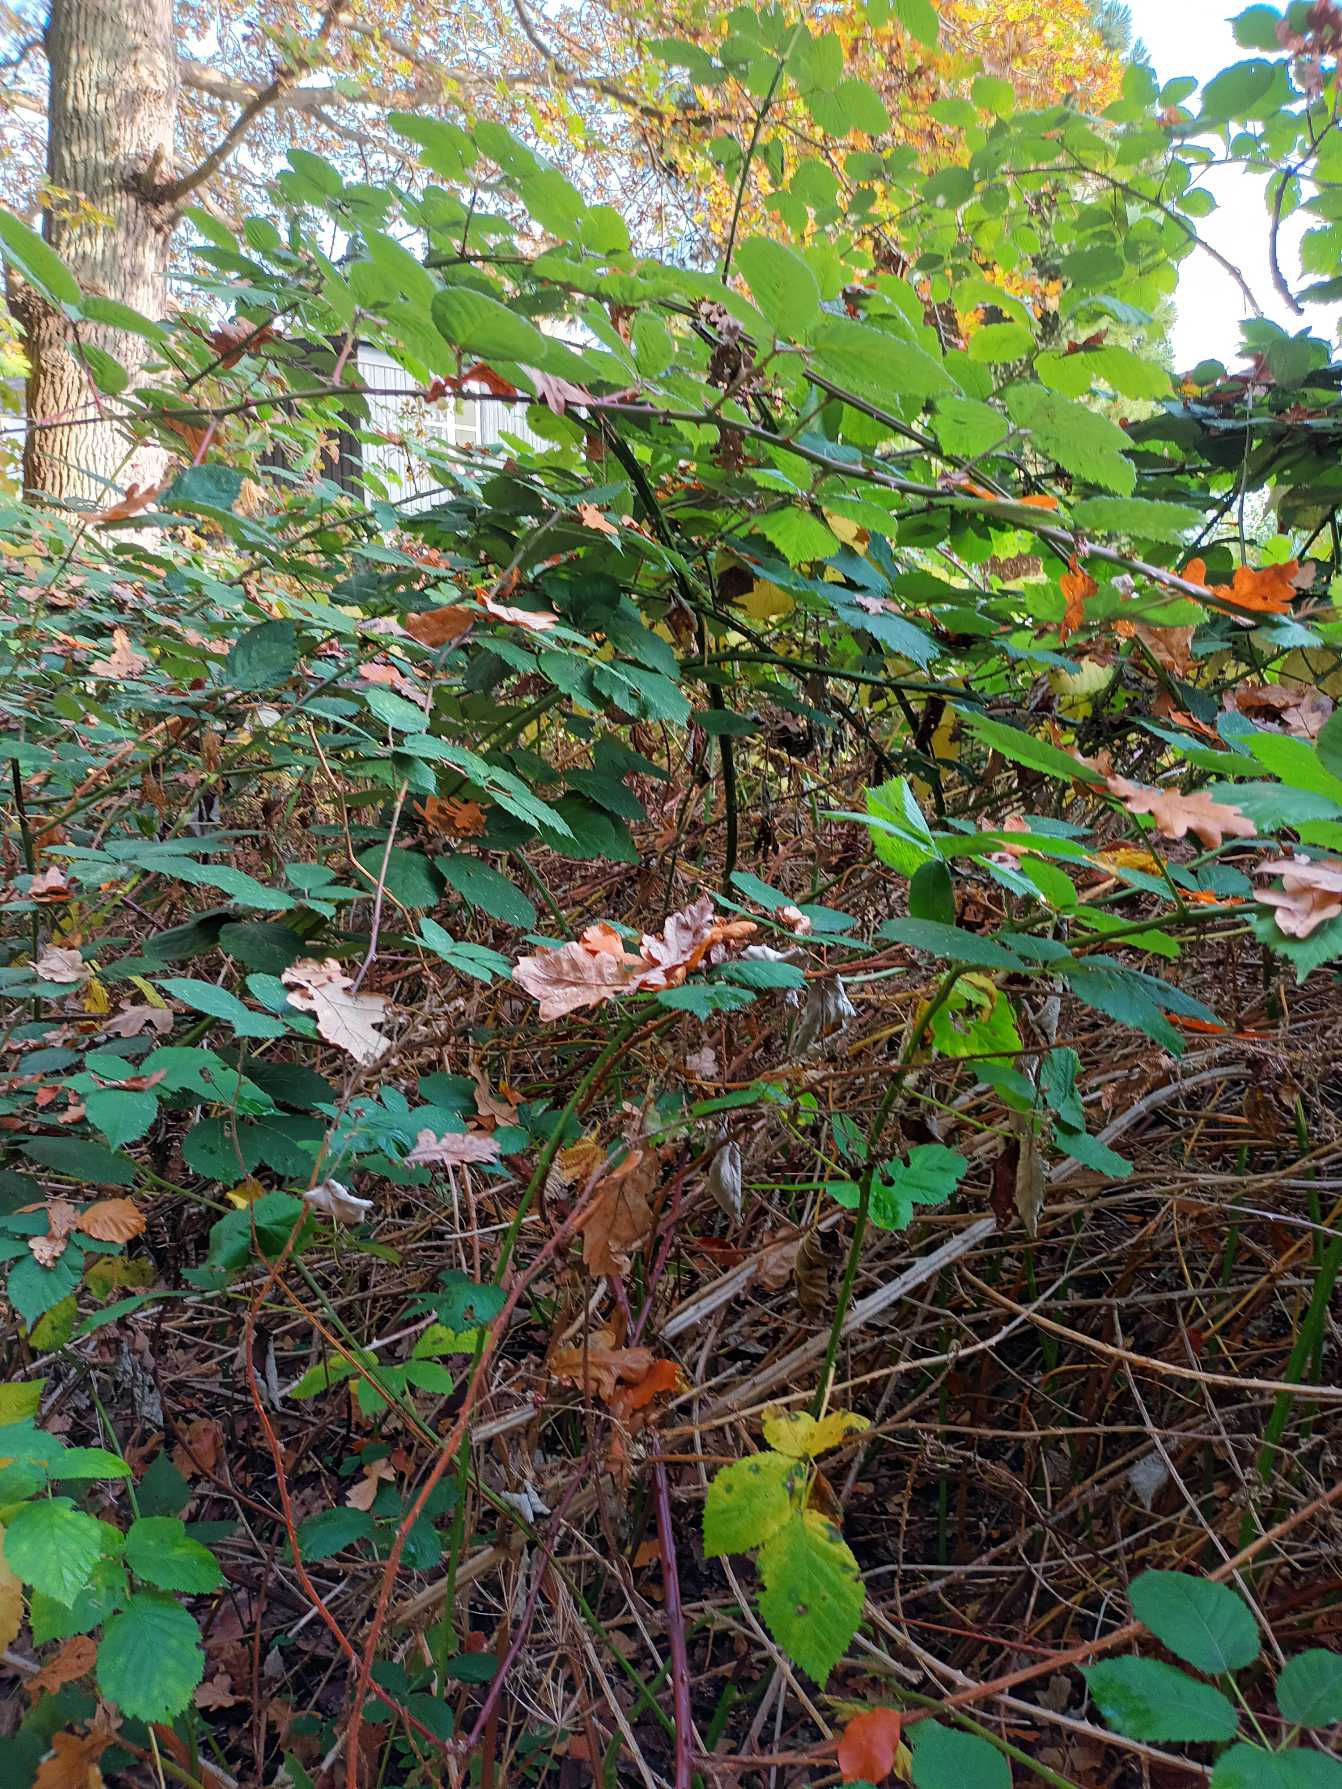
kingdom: Plantae
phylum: Tracheophyta
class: Magnoliopsida
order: Rosales
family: Rosaceae
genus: Rubus
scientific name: Rubus armeniacus
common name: Armensk brombær
